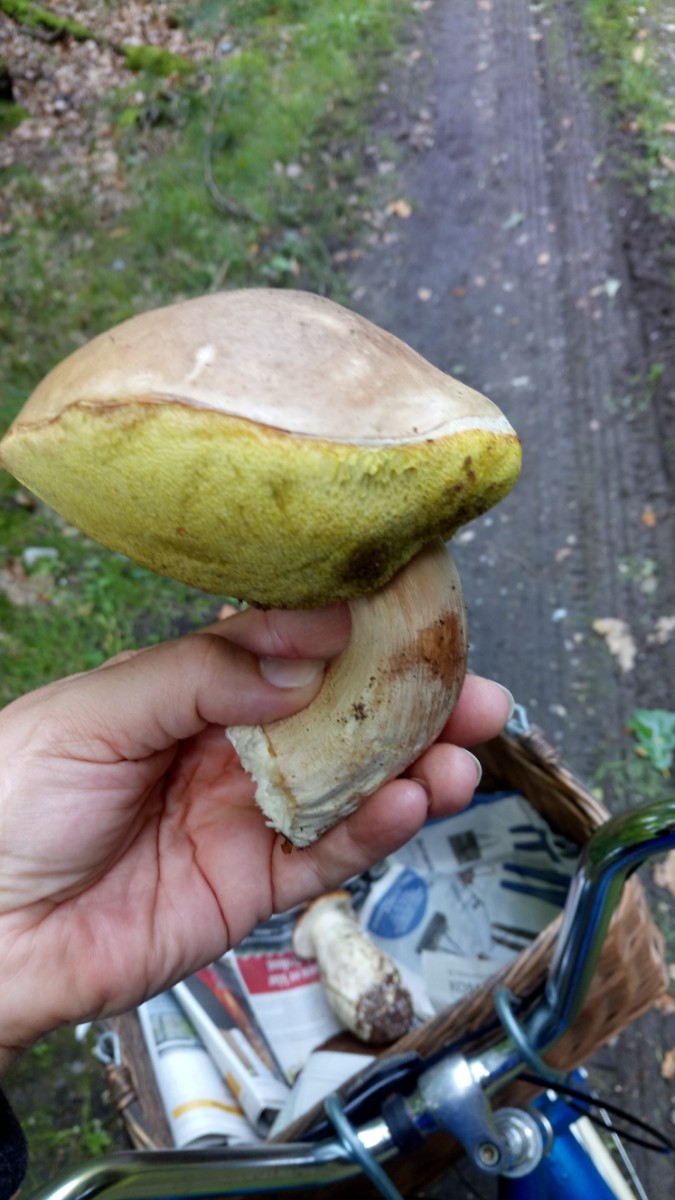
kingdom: Fungi
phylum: Basidiomycota
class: Agaricomycetes
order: Boletales
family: Boletaceae
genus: Boletus
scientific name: Boletus edulis
